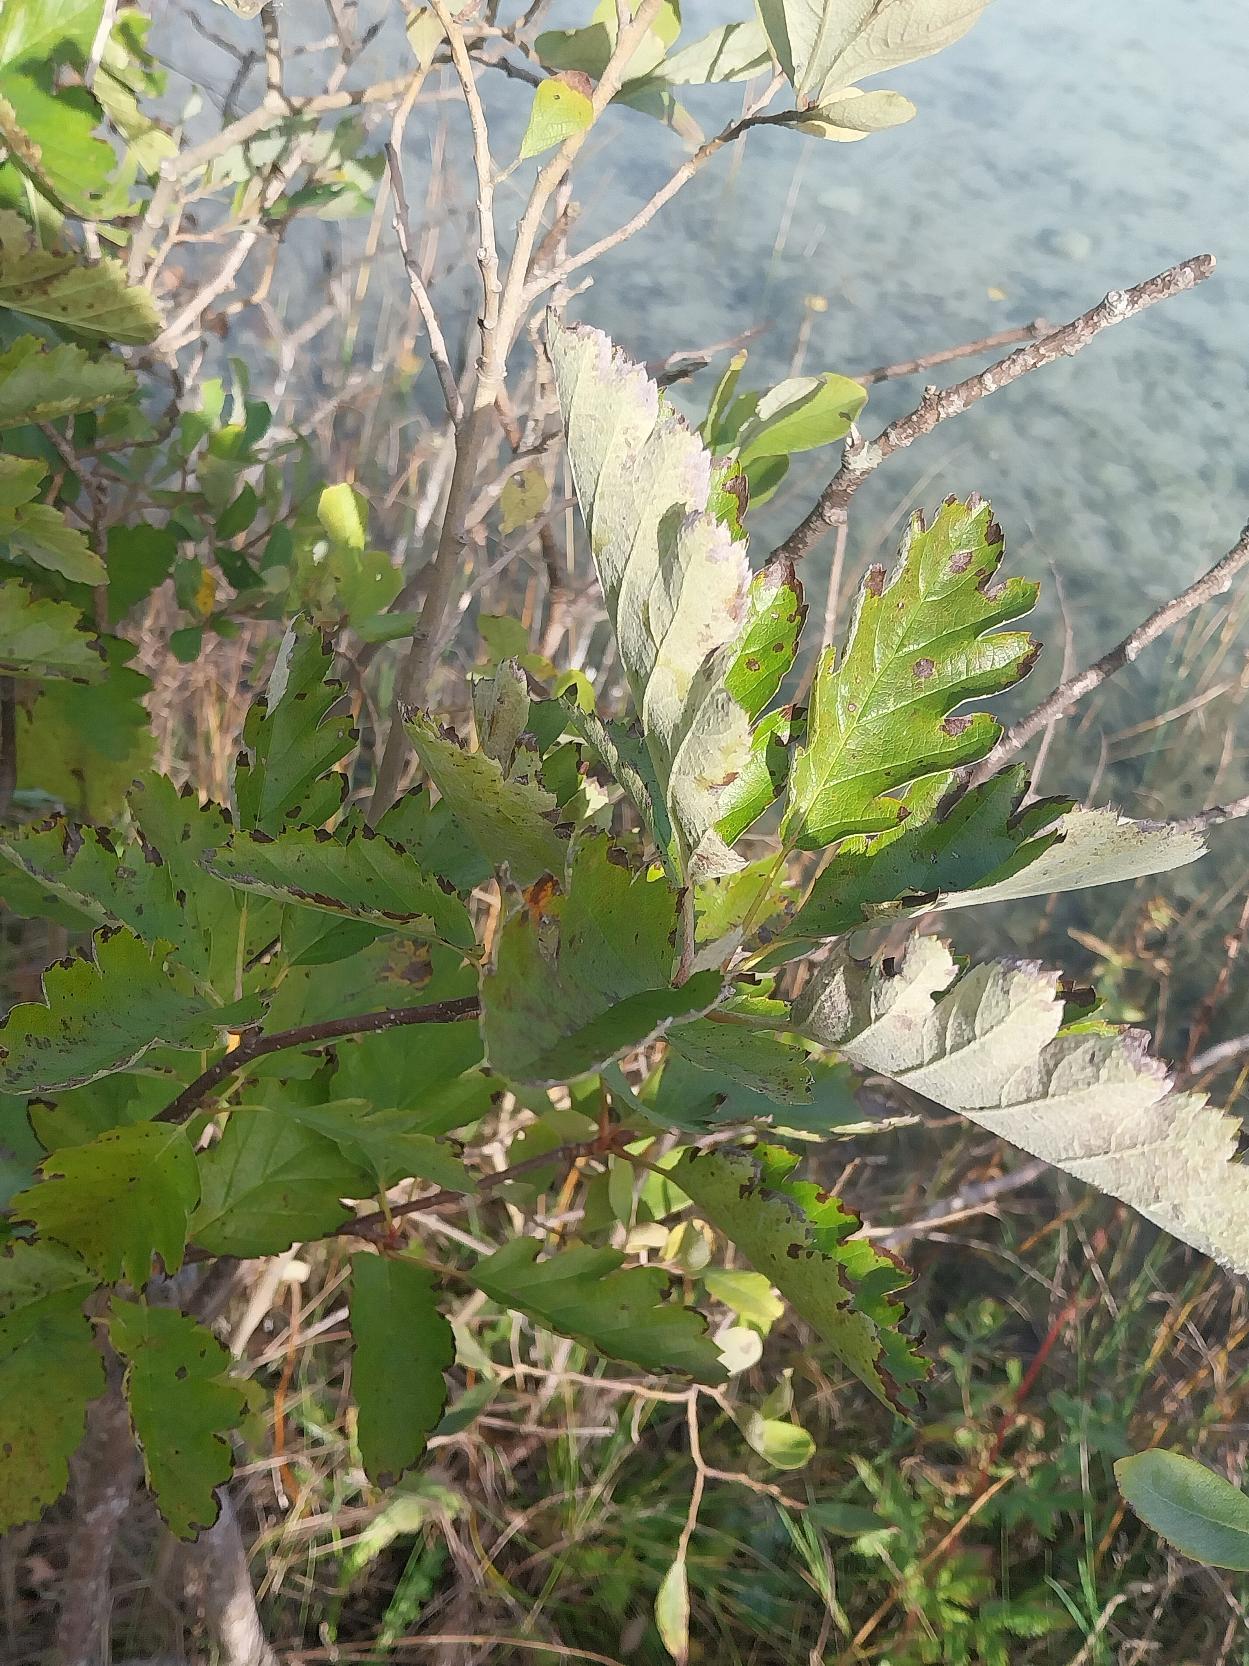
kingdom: Plantae
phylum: Tracheophyta
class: Magnoliopsida
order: Rosales
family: Rosaceae
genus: Scandosorbus
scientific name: Scandosorbus intermedia
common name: Selje-røn
